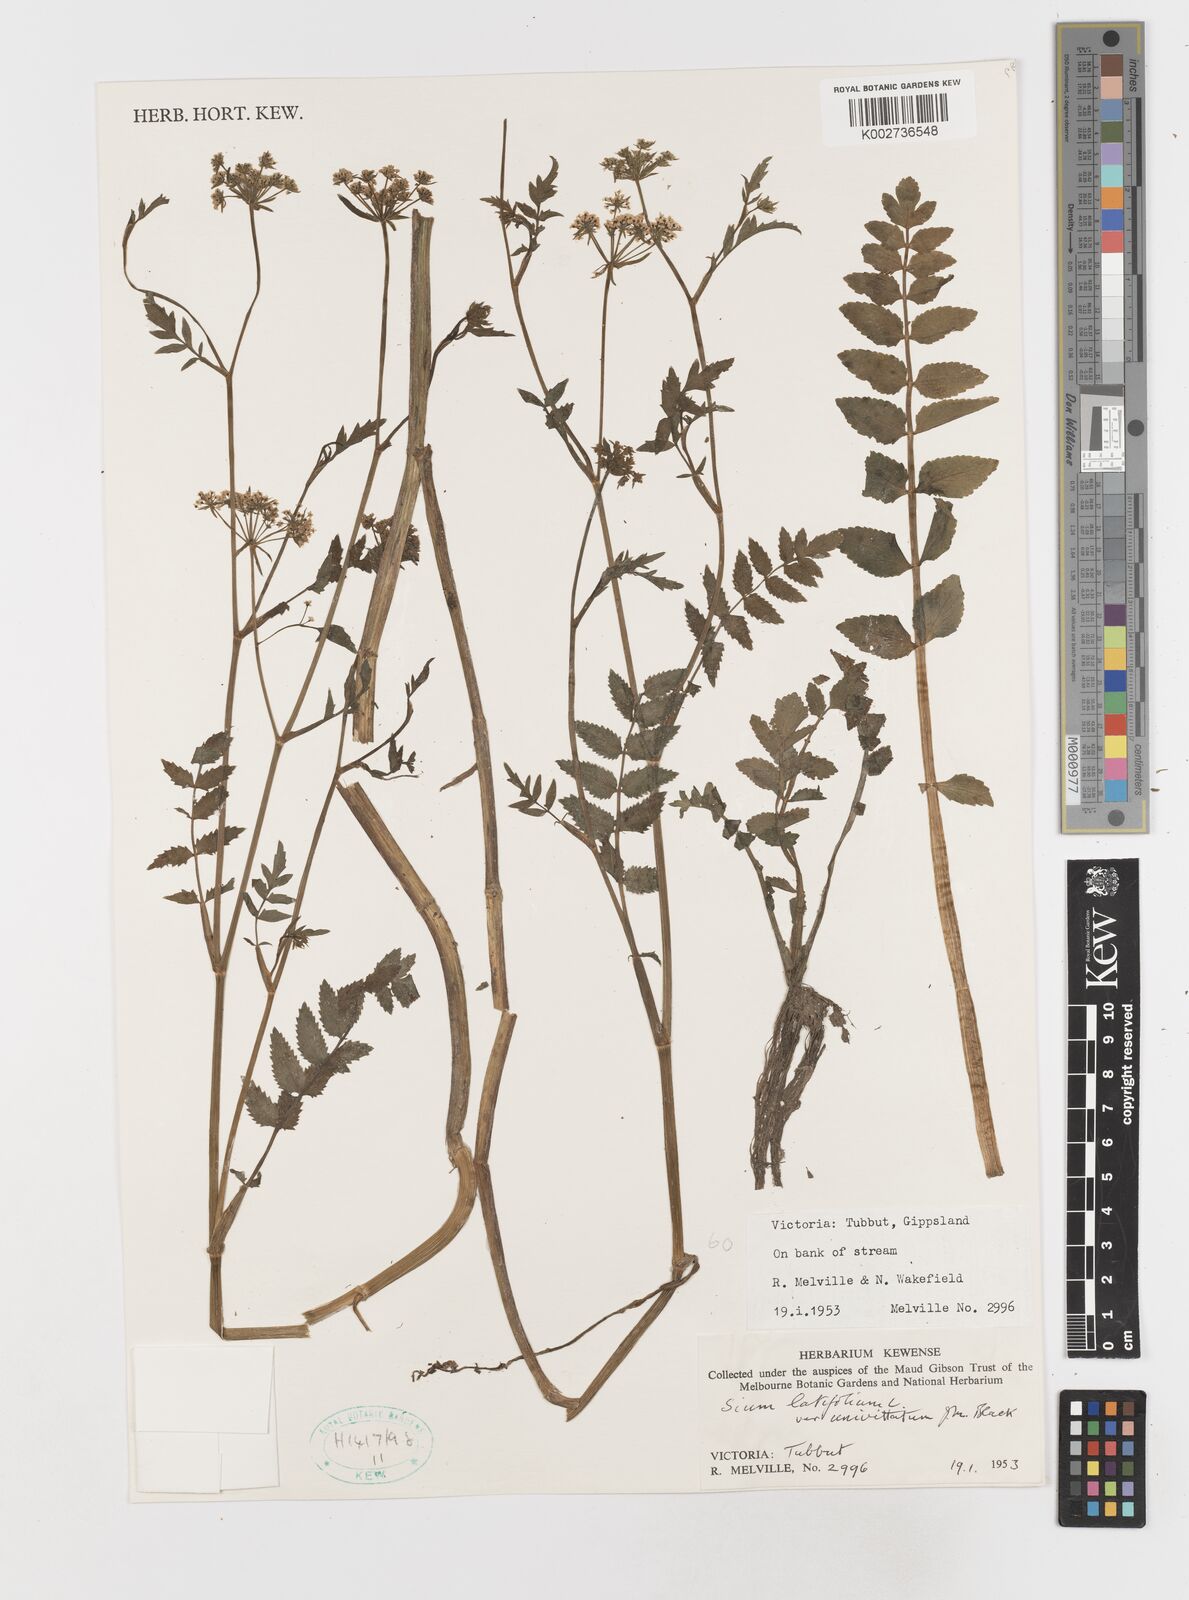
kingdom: Plantae
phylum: Tracheophyta
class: Magnoliopsida
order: Apiales
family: Apiaceae
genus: Sium
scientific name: Sium latifolium
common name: Greater water-parsnip
